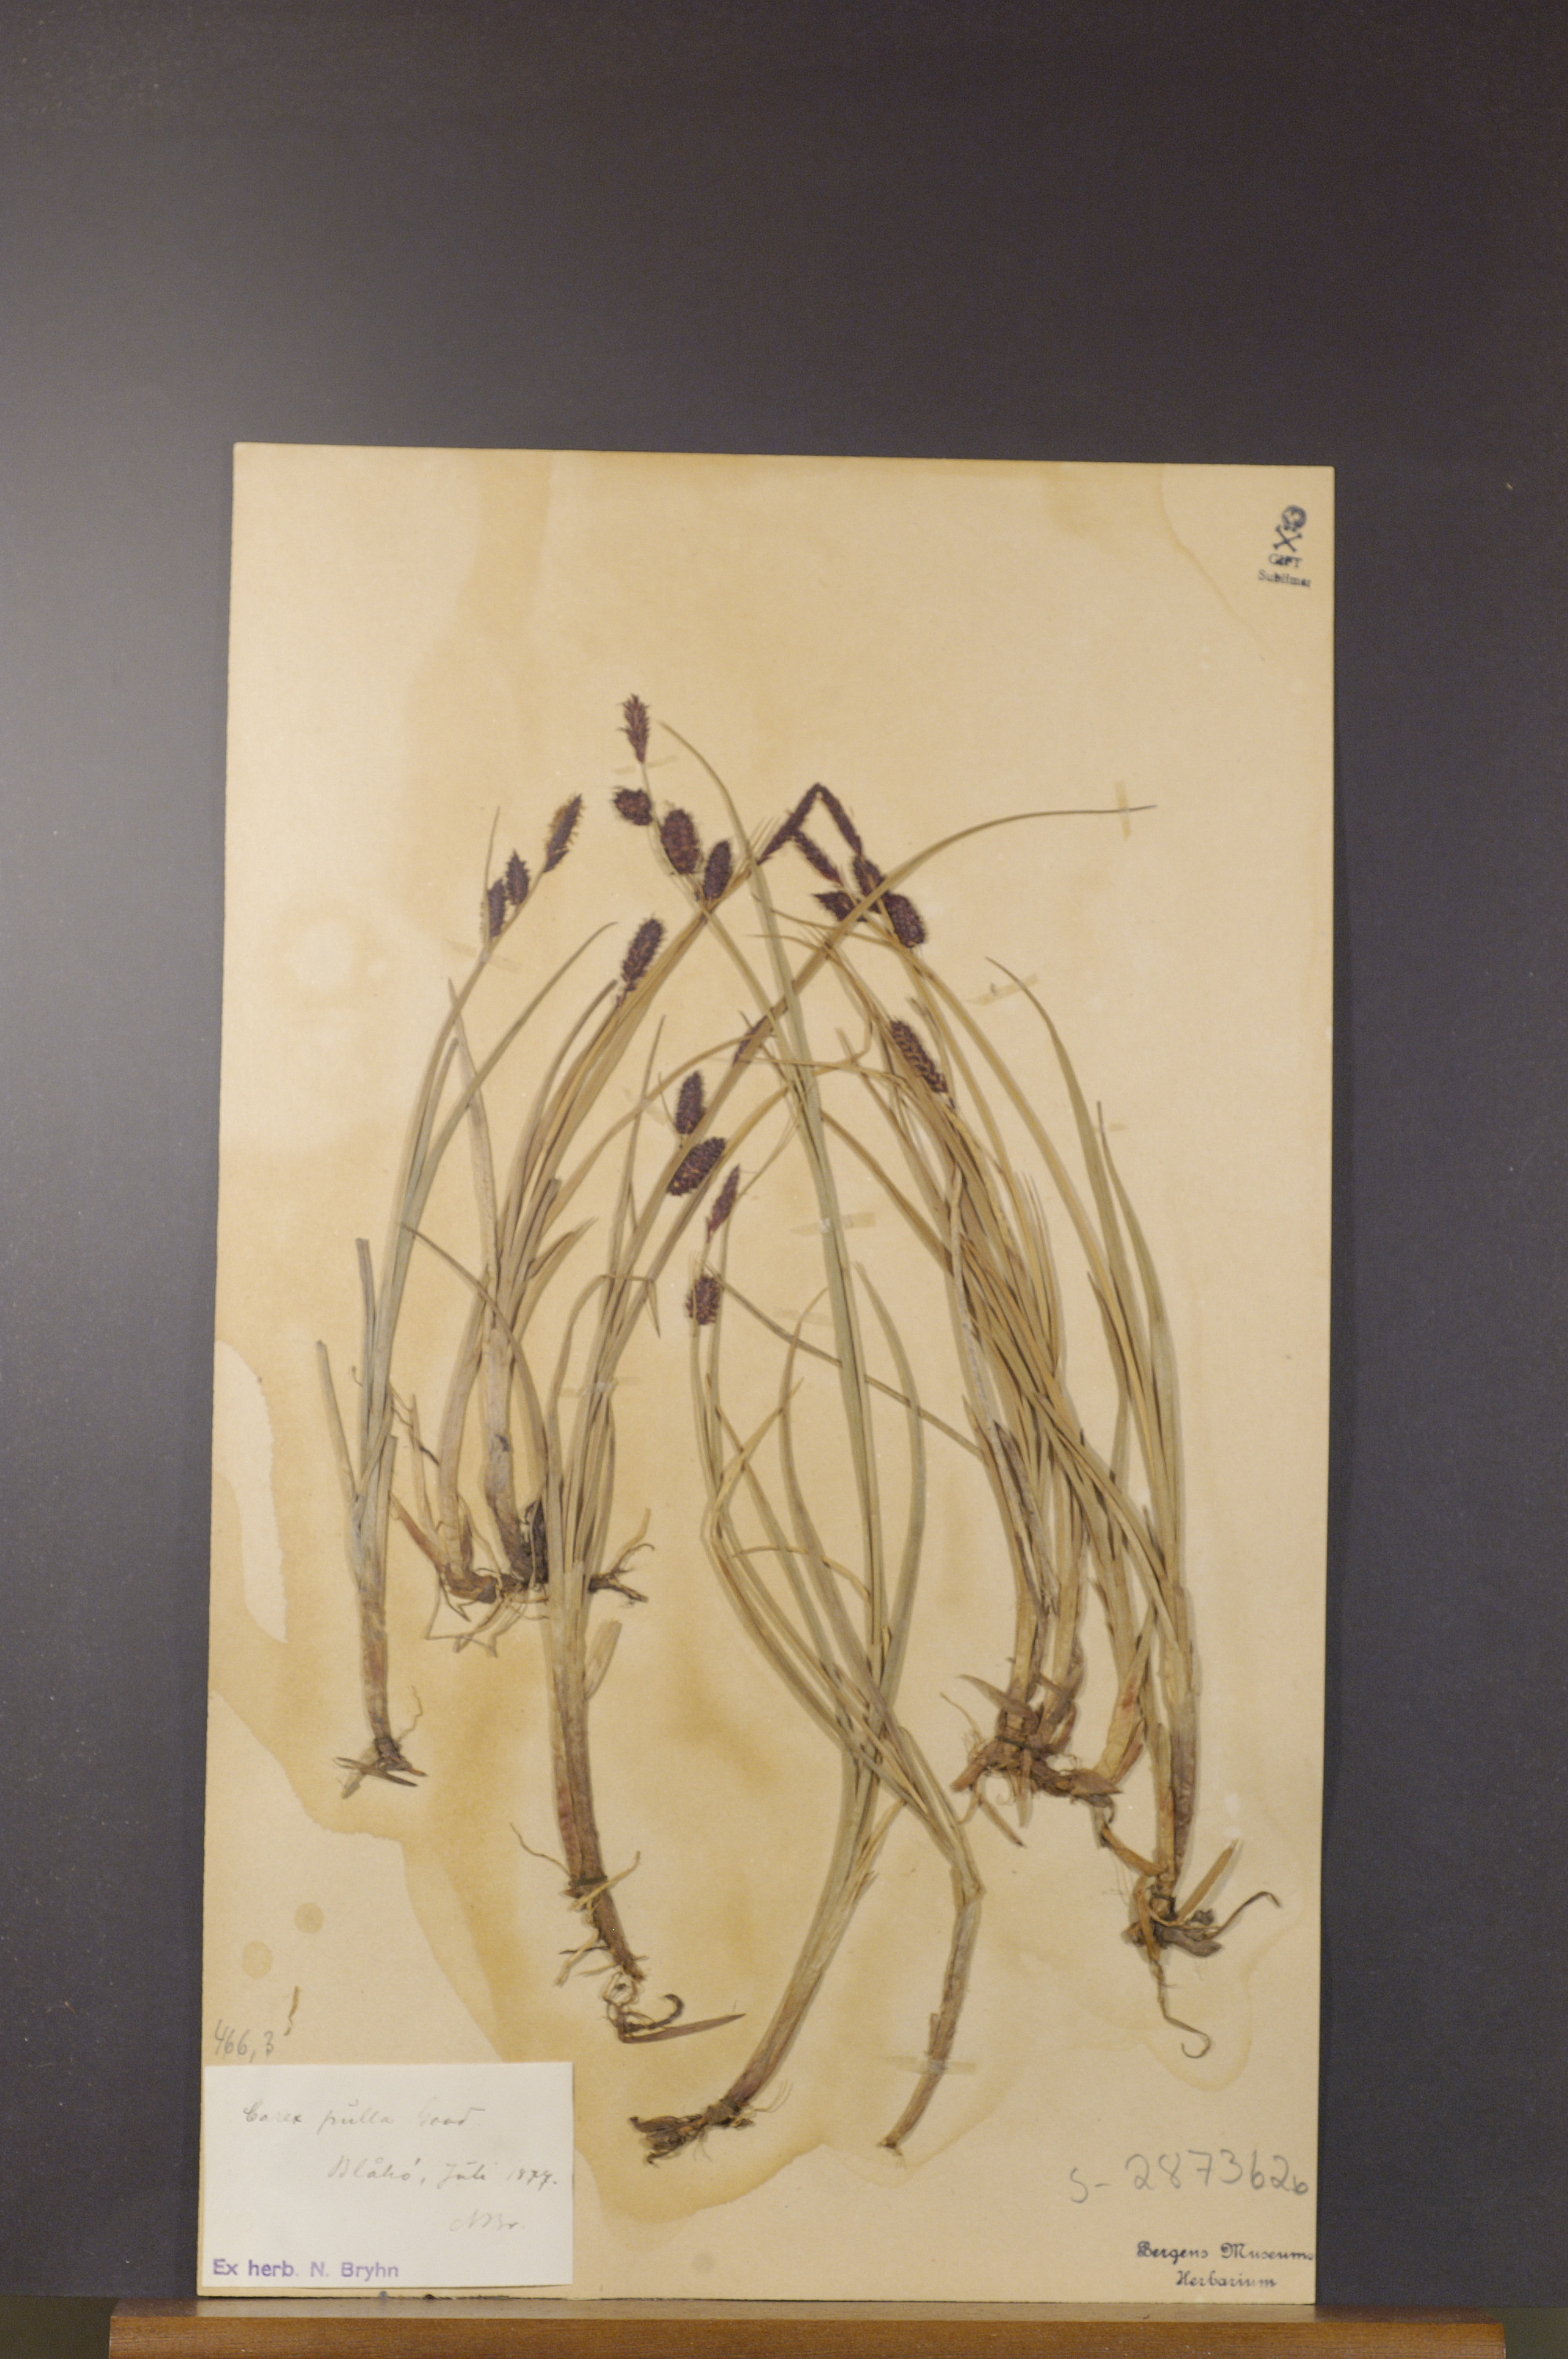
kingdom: Plantae
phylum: Tracheophyta
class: Liliopsida
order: Poales
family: Cyperaceae
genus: Carex
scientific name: Carex saxatilis
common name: Russet sedge
